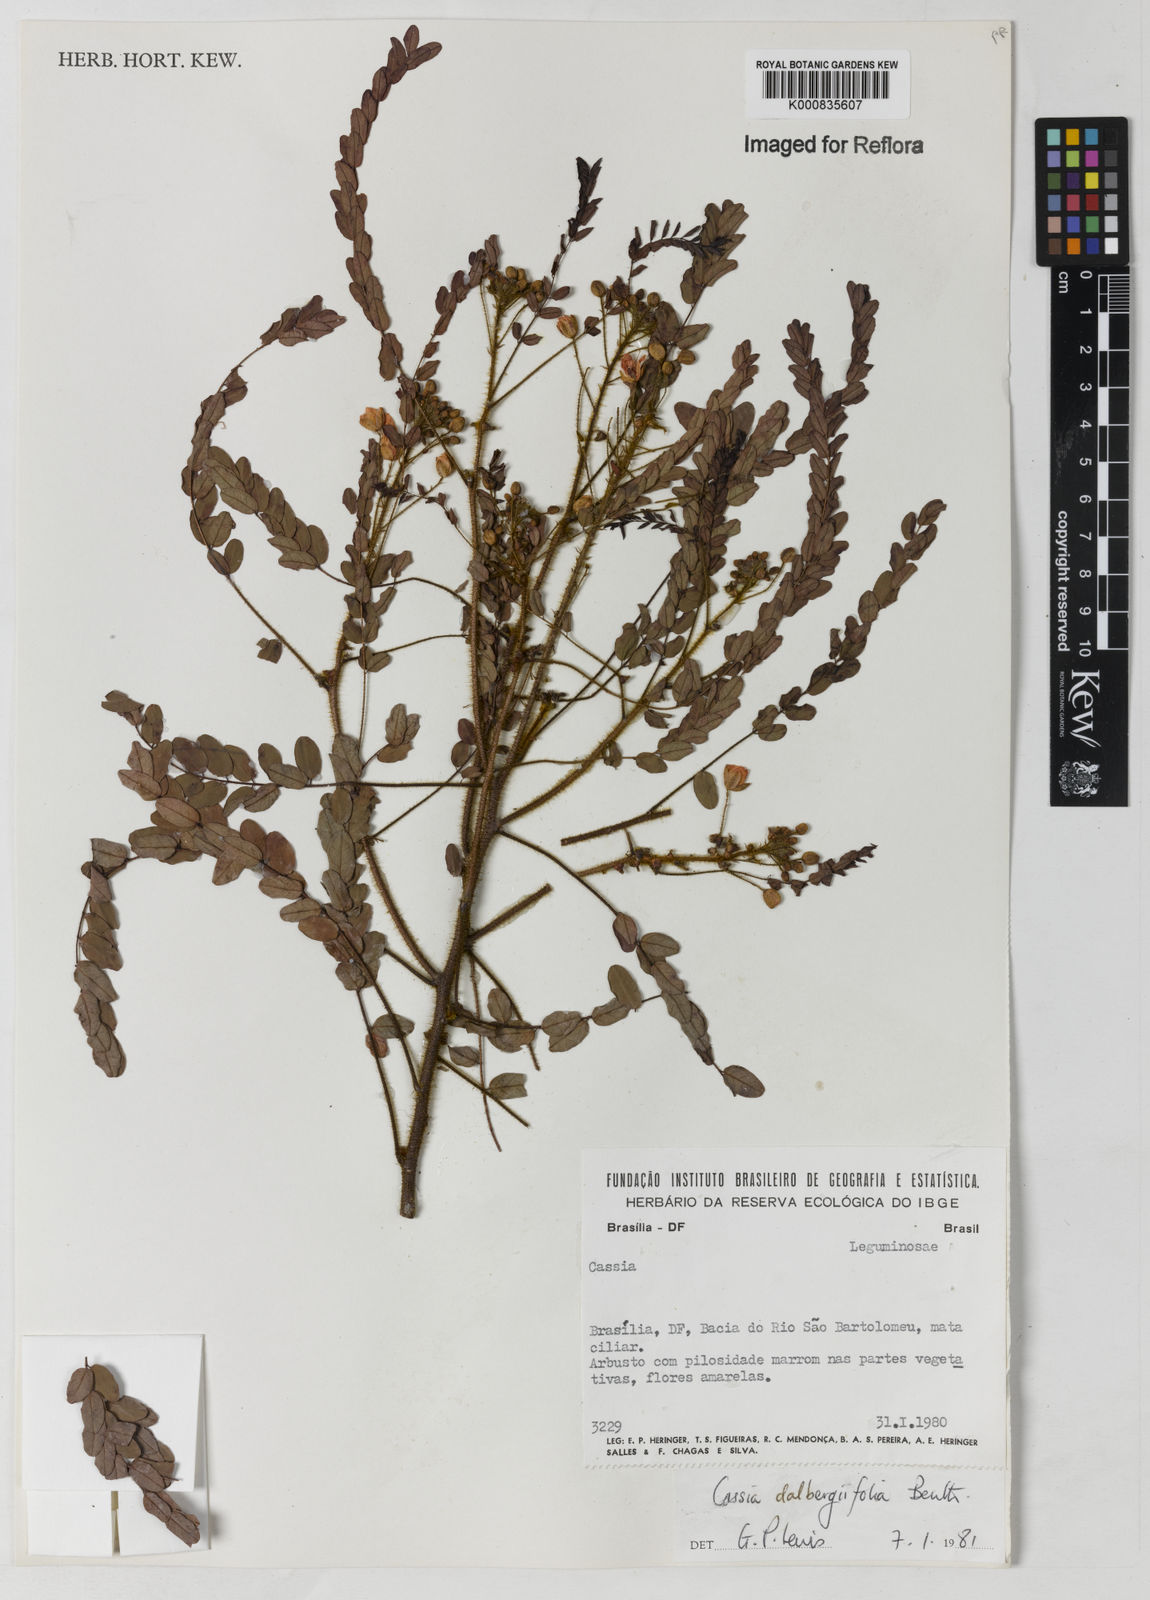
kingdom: Plantae
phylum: Tracheophyta
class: Magnoliopsida
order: Fabales
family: Fabaceae
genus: Chamaecrista
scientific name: Chamaecrista dalbergiifolia
